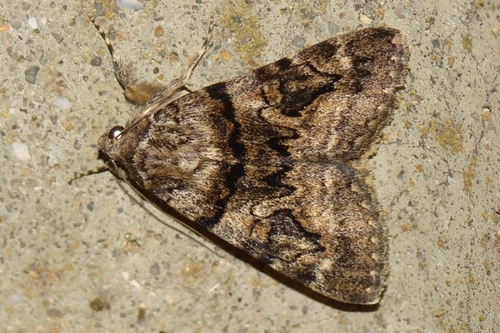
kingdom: Animalia
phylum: Arthropoda
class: Insecta
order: Lepidoptera
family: Erebidae
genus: Catocala
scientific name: Catocala nymphagoga
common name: Oak yellow underwing
